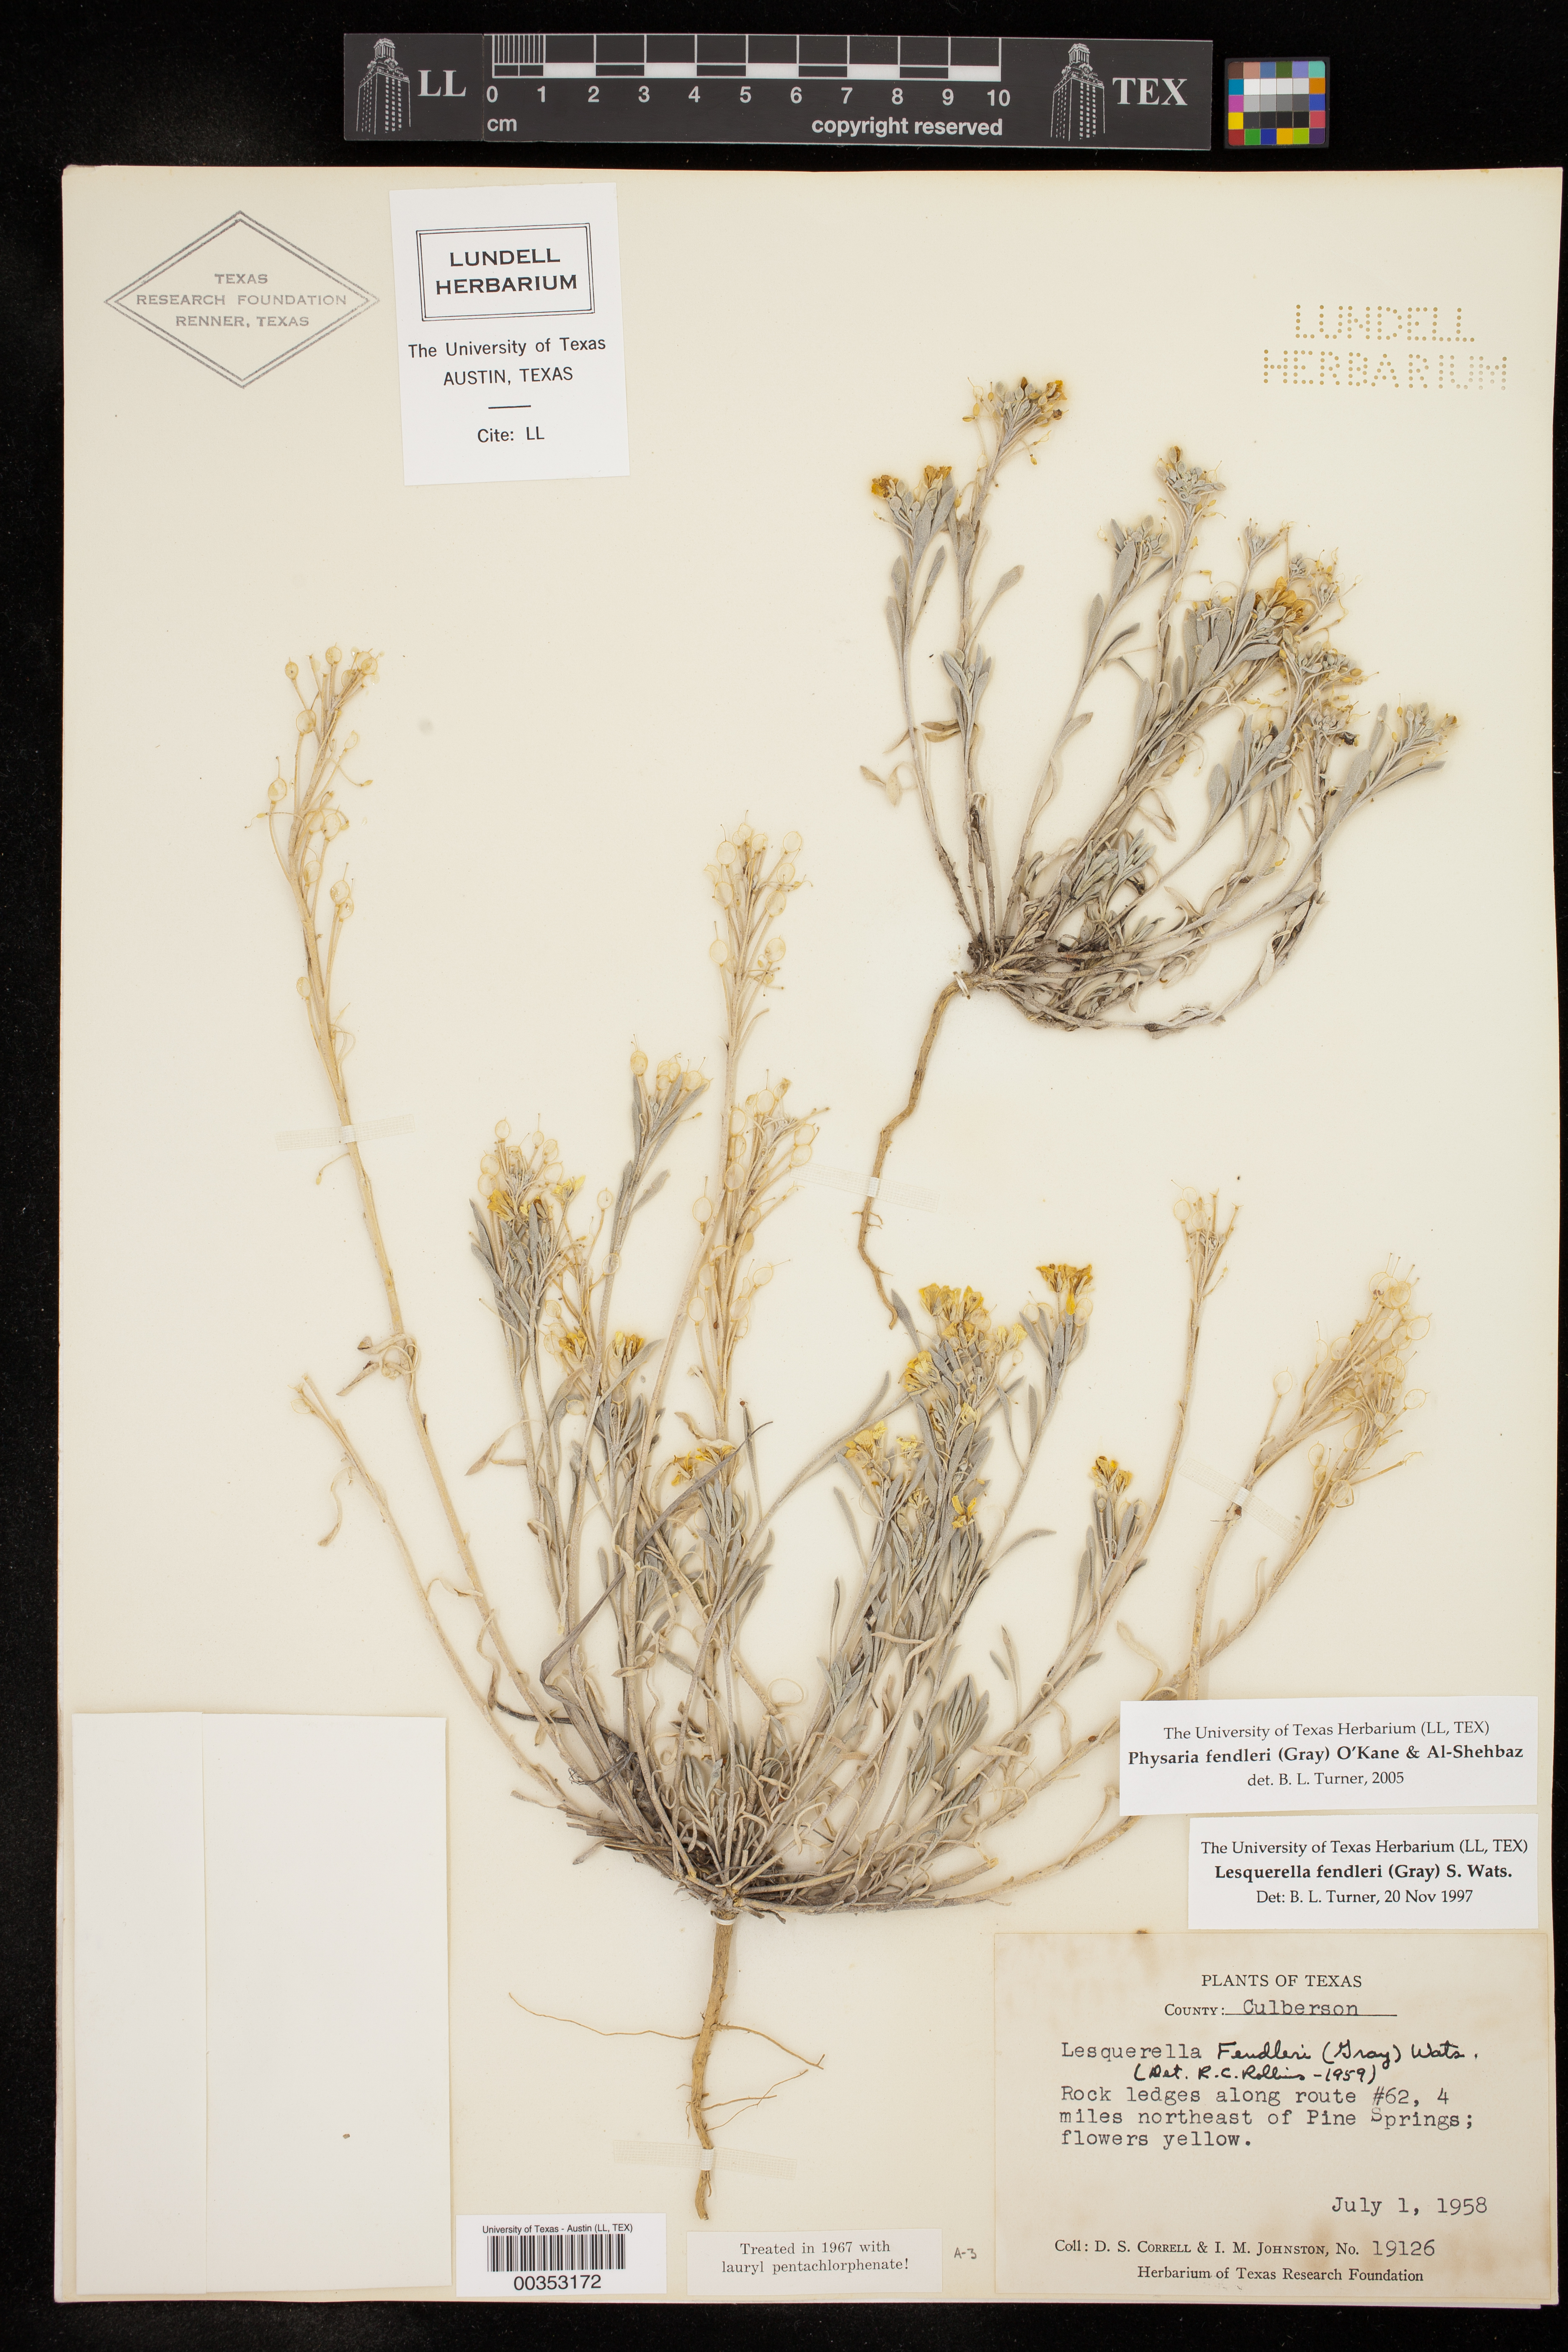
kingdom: Plantae
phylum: Tracheophyta
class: Magnoliopsida
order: Brassicales
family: Brassicaceae
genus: Physaria
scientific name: Physaria fendleri
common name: Fendler's bladderpod
